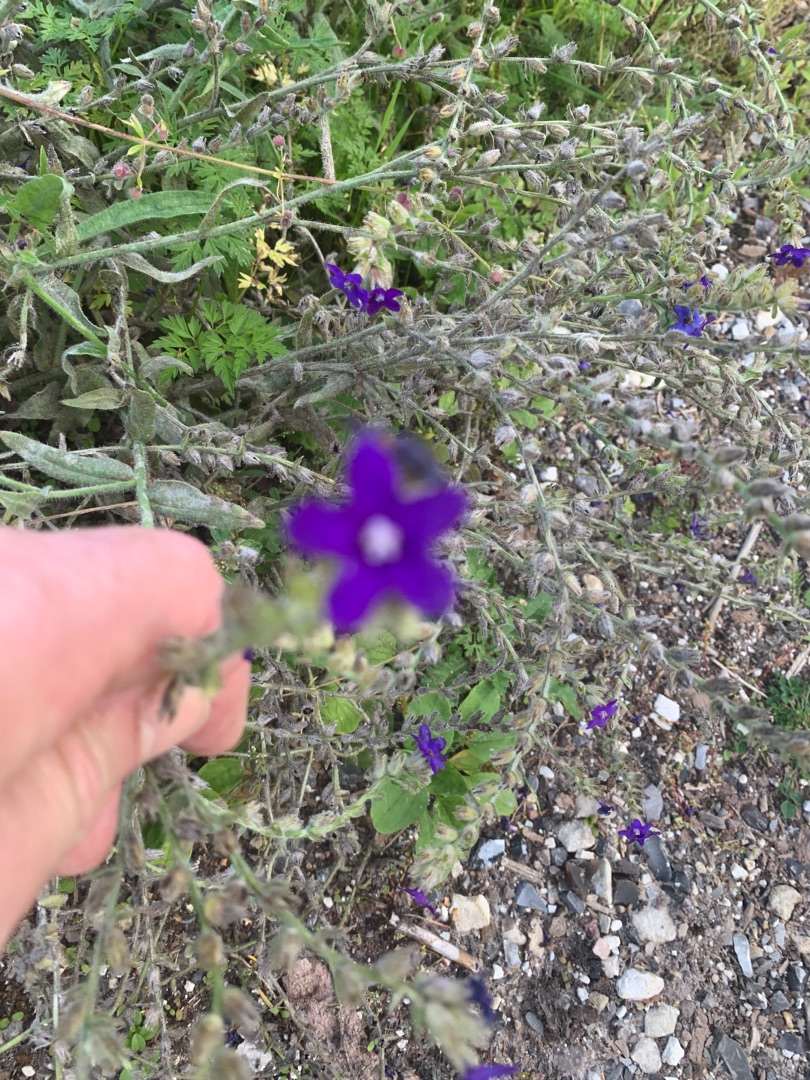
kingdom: Plantae
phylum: Tracheophyta
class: Magnoliopsida
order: Boraginales
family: Boraginaceae
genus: Anchusa
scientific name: Anchusa officinalis
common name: Læge-oksetunge
